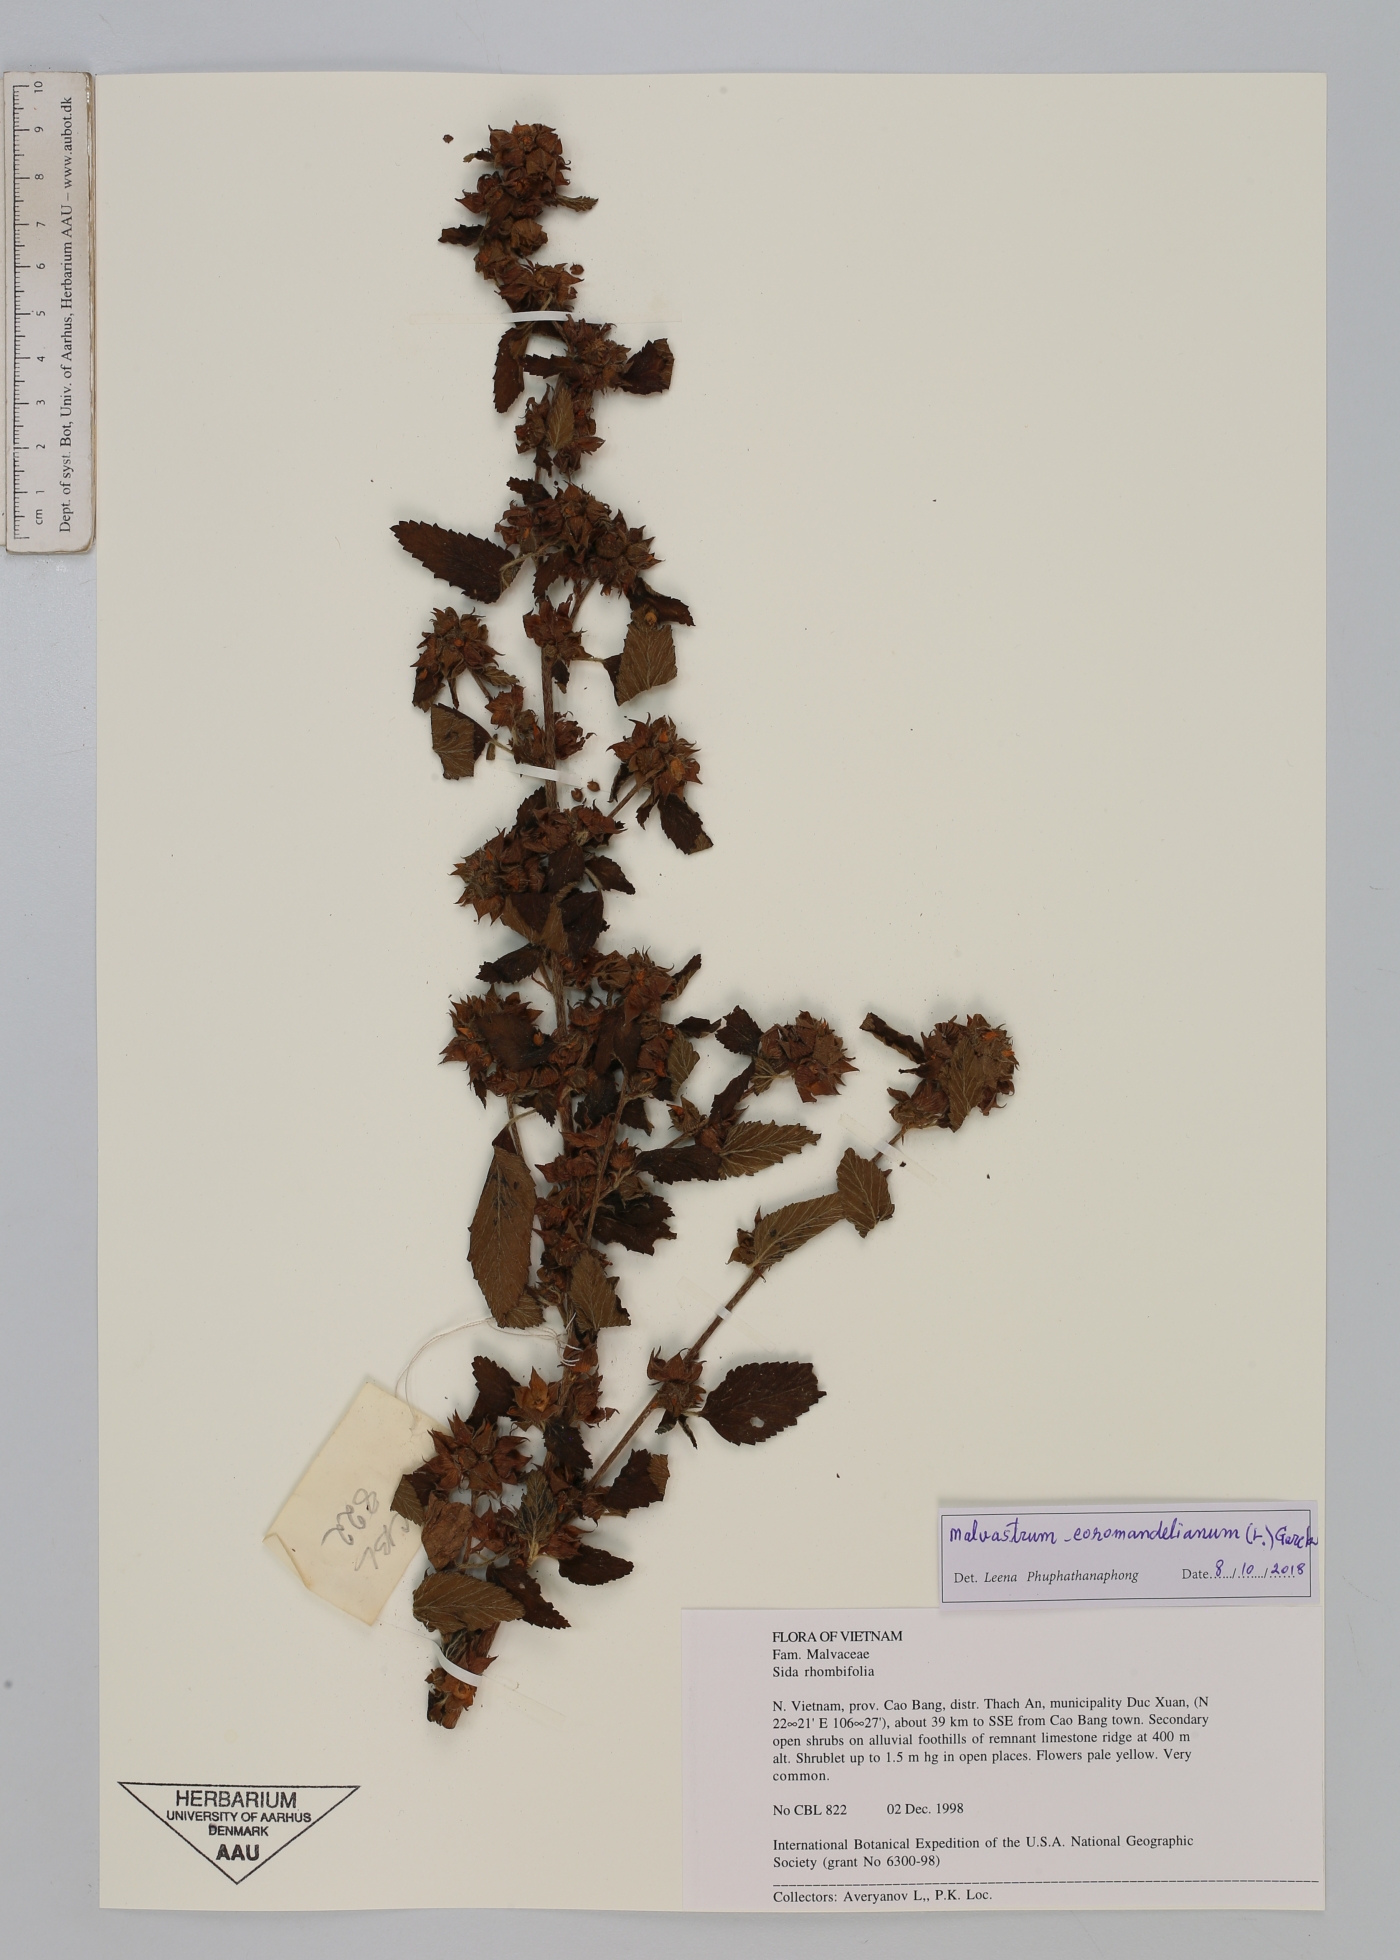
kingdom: Plantae
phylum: Tracheophyta
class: Magnoliopsida
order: Malvales
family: Malvaceae
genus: Malvastrum
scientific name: Malvastrum coromandelianum
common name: Threelobe false mallow
